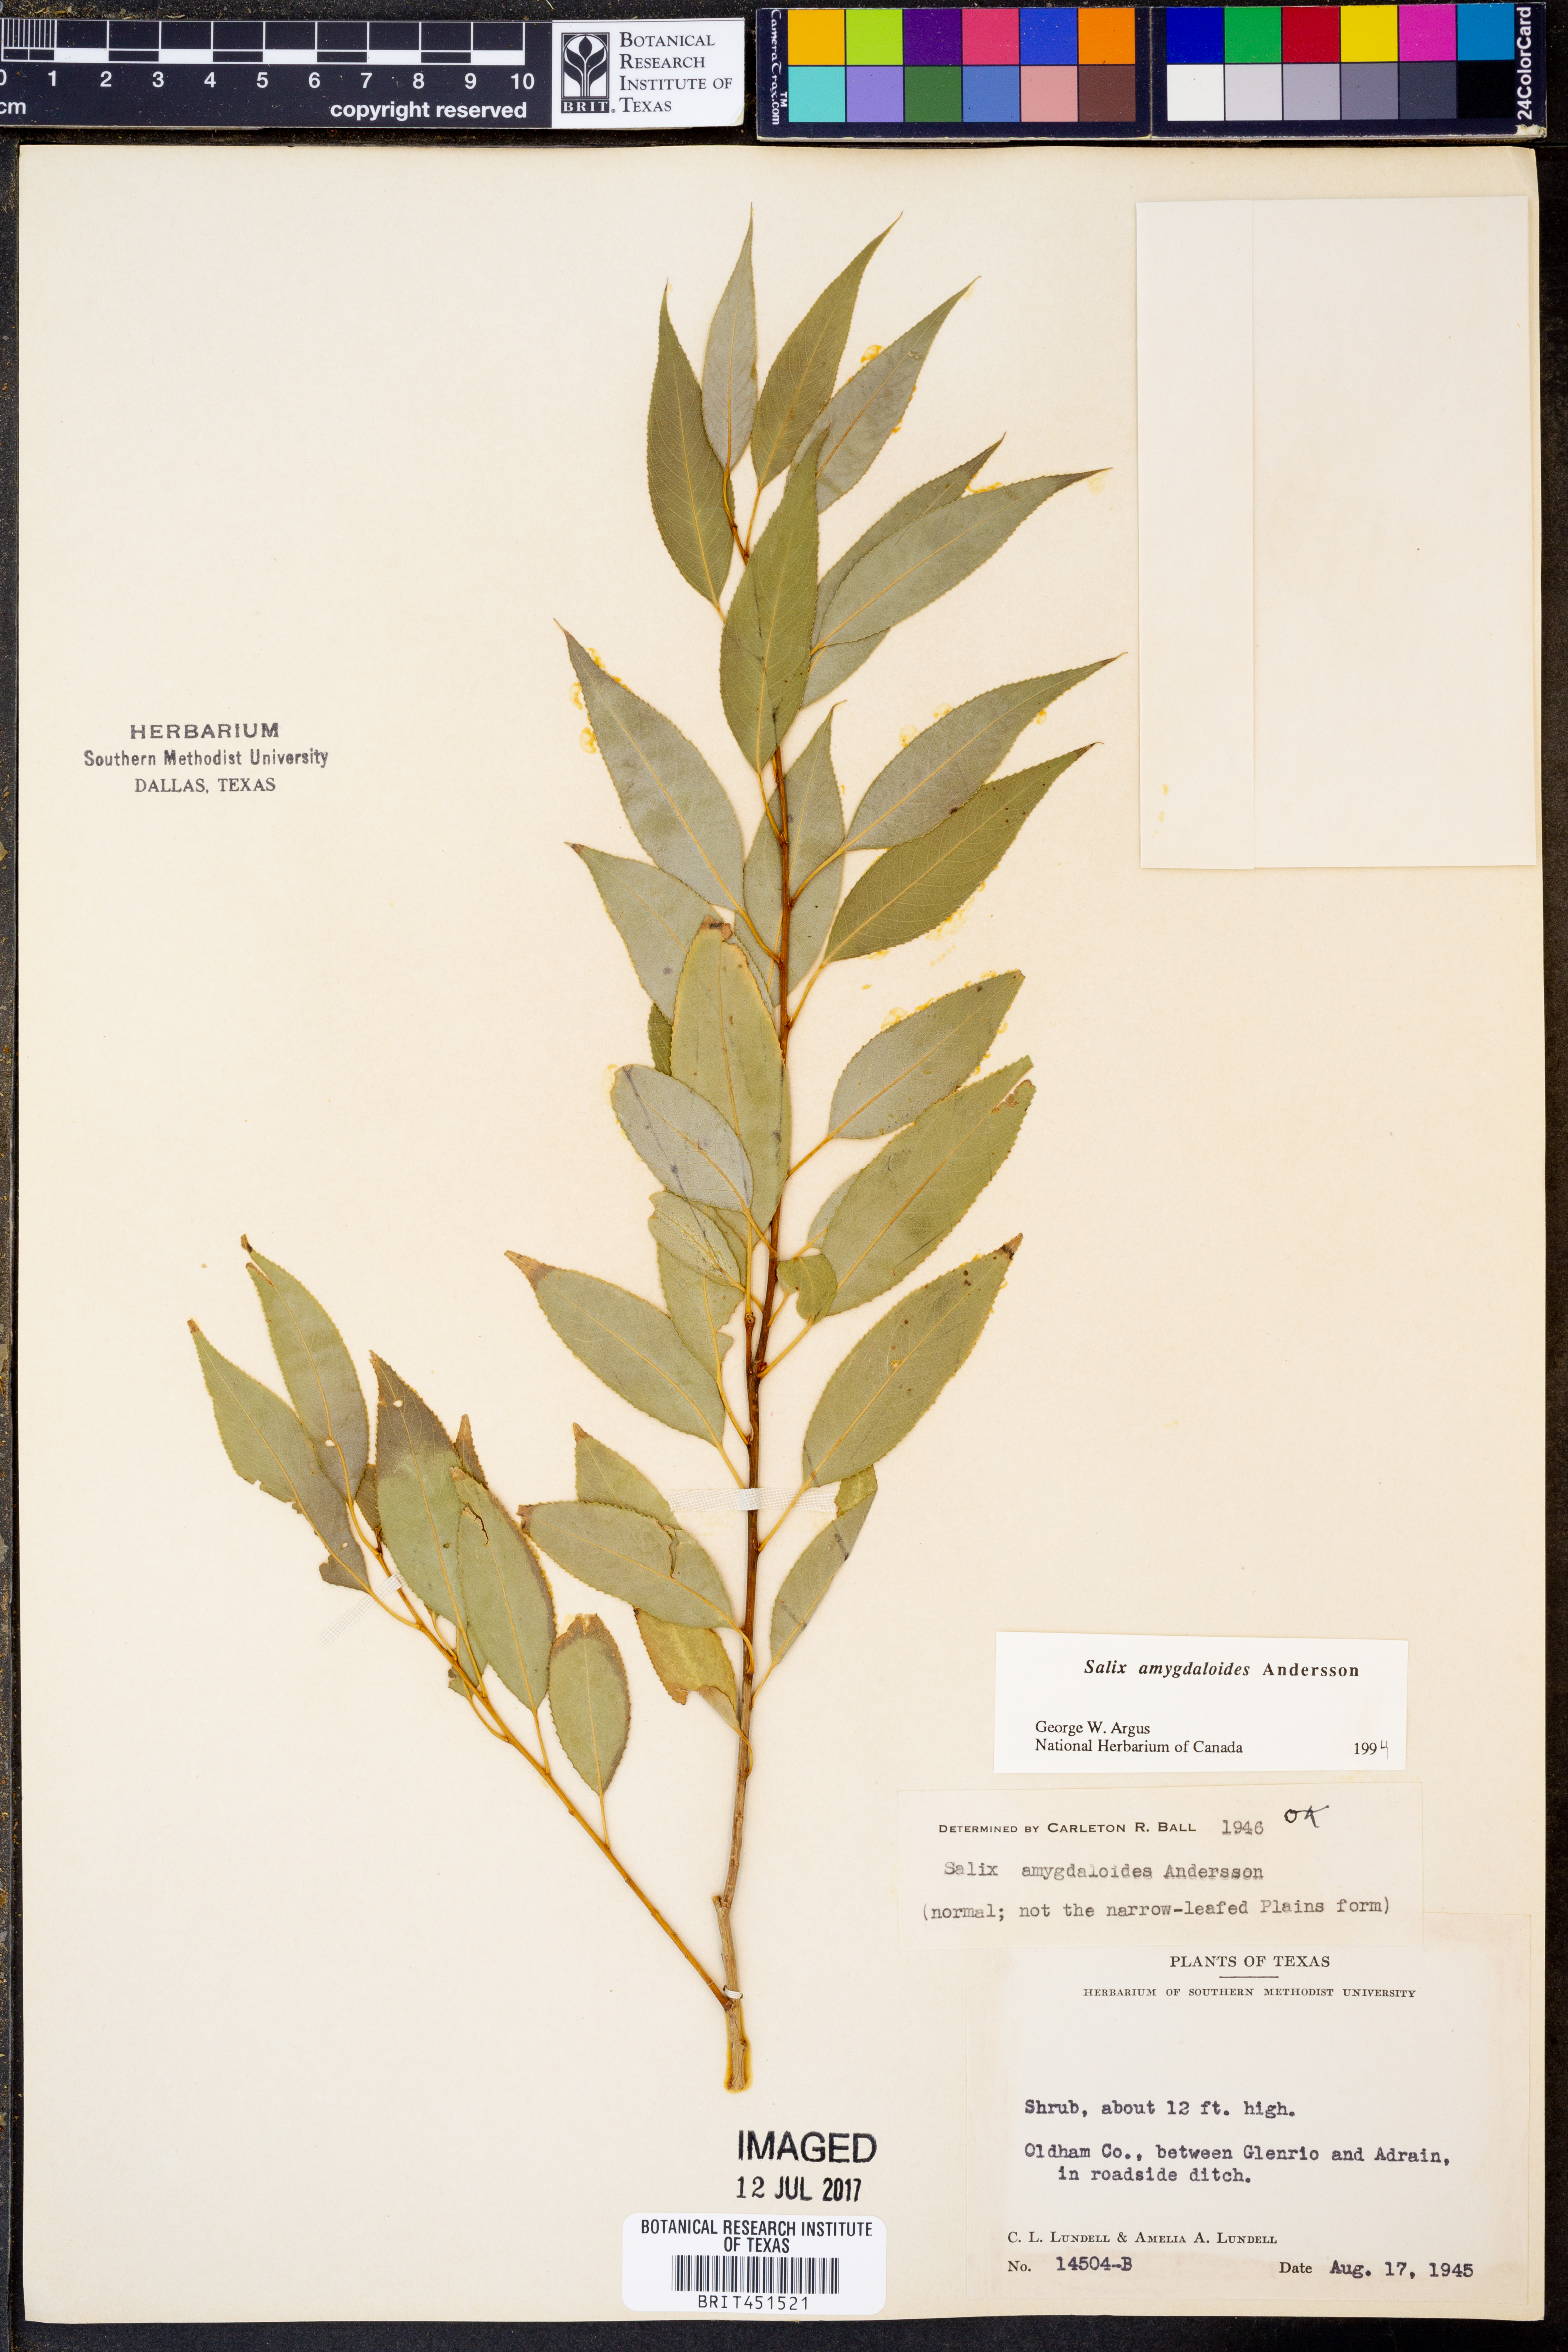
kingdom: Plantae
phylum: Tracheophyta
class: Magnoliopsida
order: Malpighiales
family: Salicaceae
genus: Salix
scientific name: Salix amygdaloides
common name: Peach leaf willow
